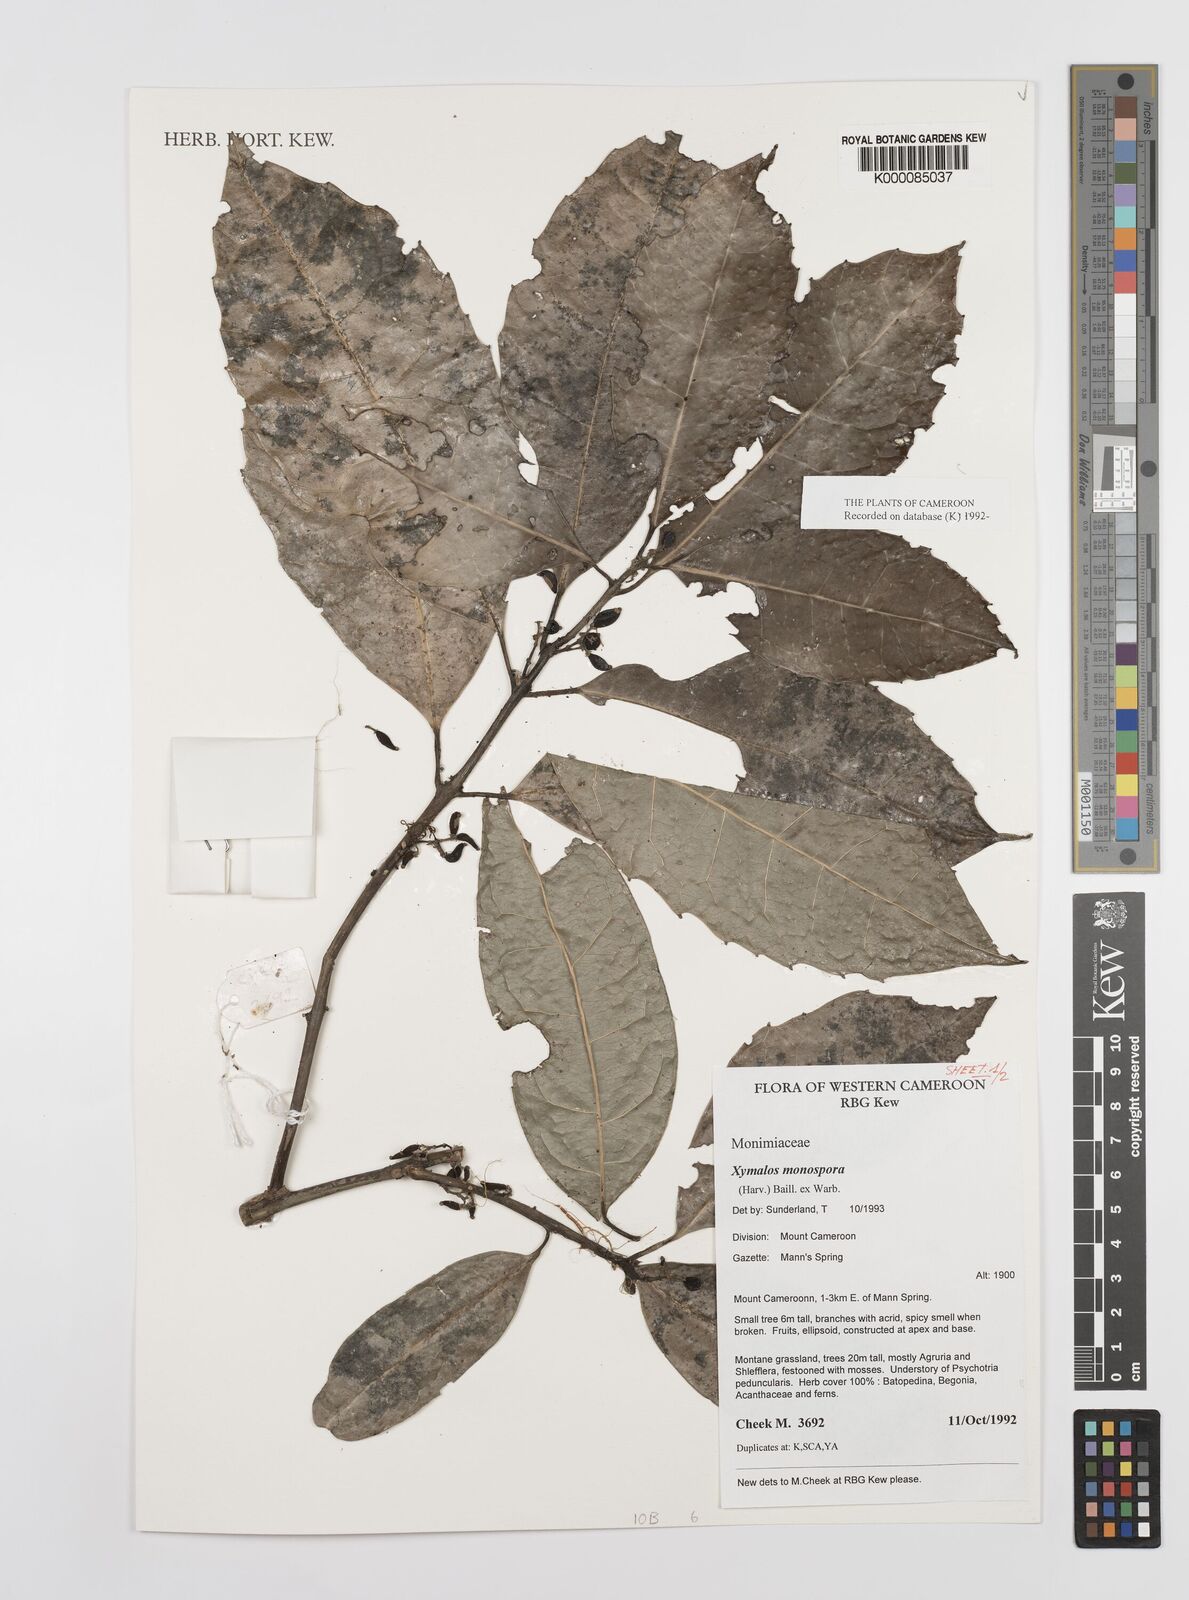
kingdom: Plantae
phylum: Tracheophyta
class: Magnoliopsida
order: Laurales
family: Monimiaceae
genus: Xymalos
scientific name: Xymalos
